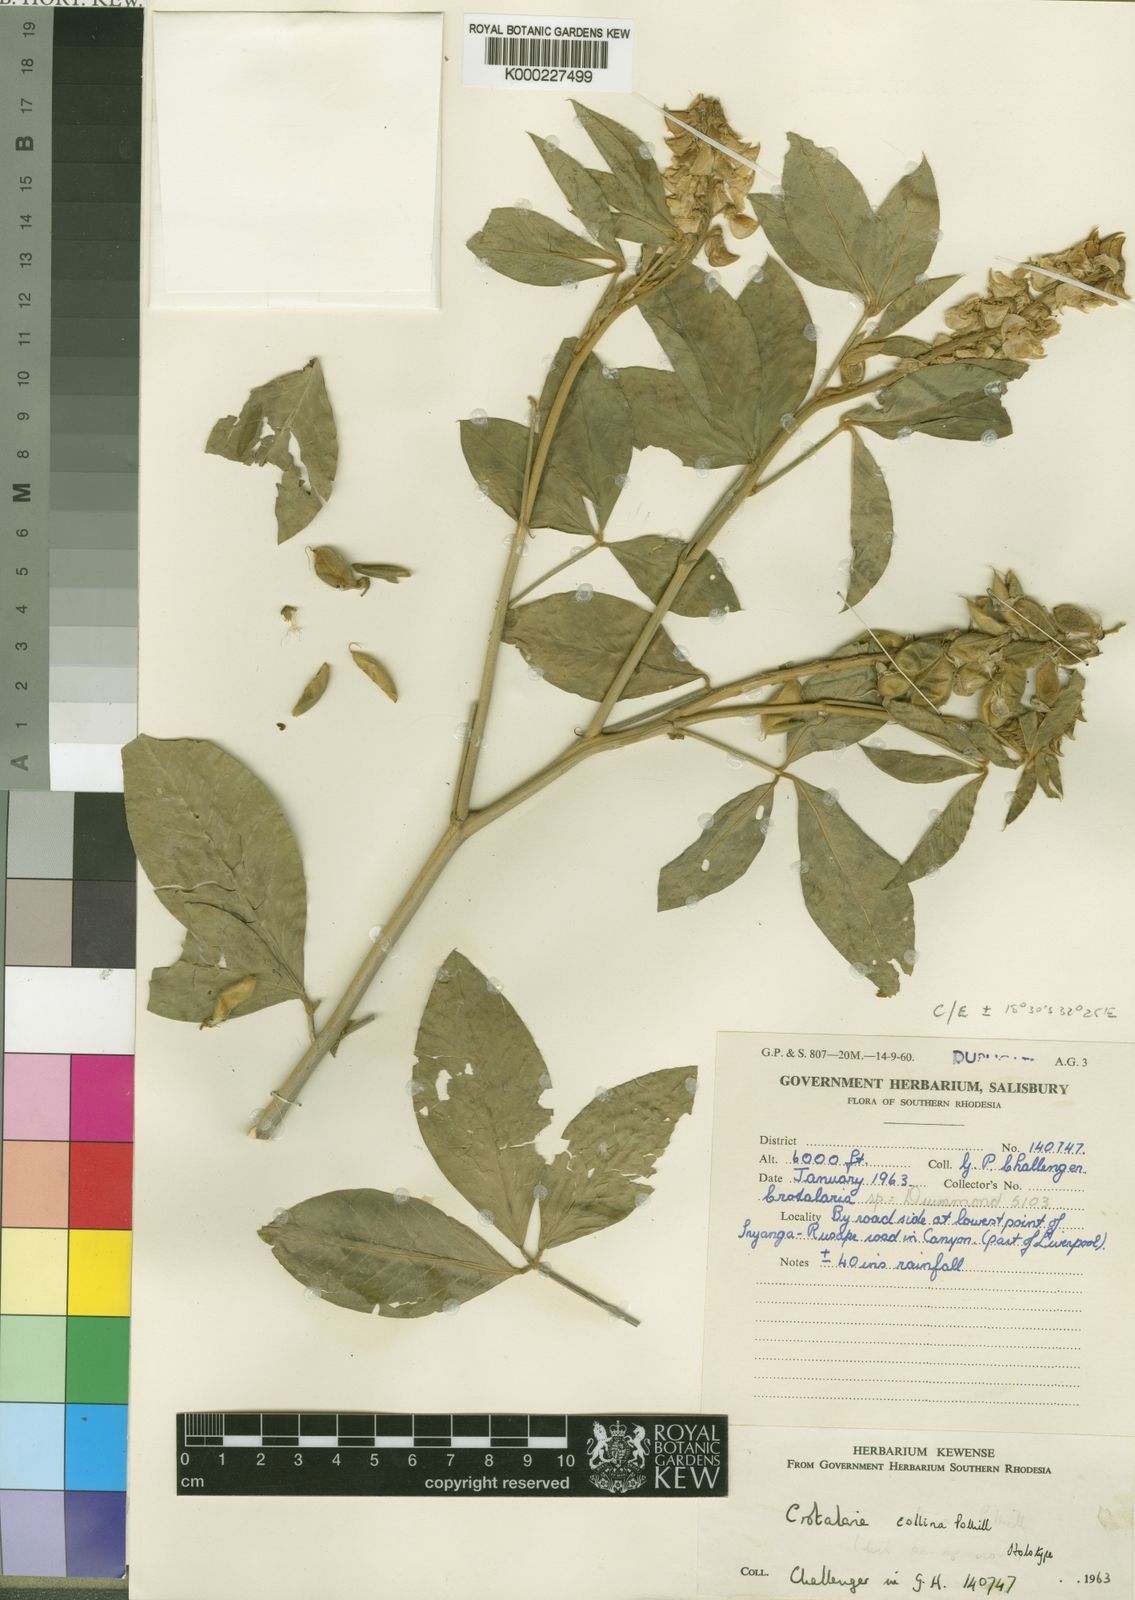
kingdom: Plantae
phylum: Tracheophyta
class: Magnoliopsida
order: Fabales
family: Fabaceae
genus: Crotalaria
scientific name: Crotalaria collina
